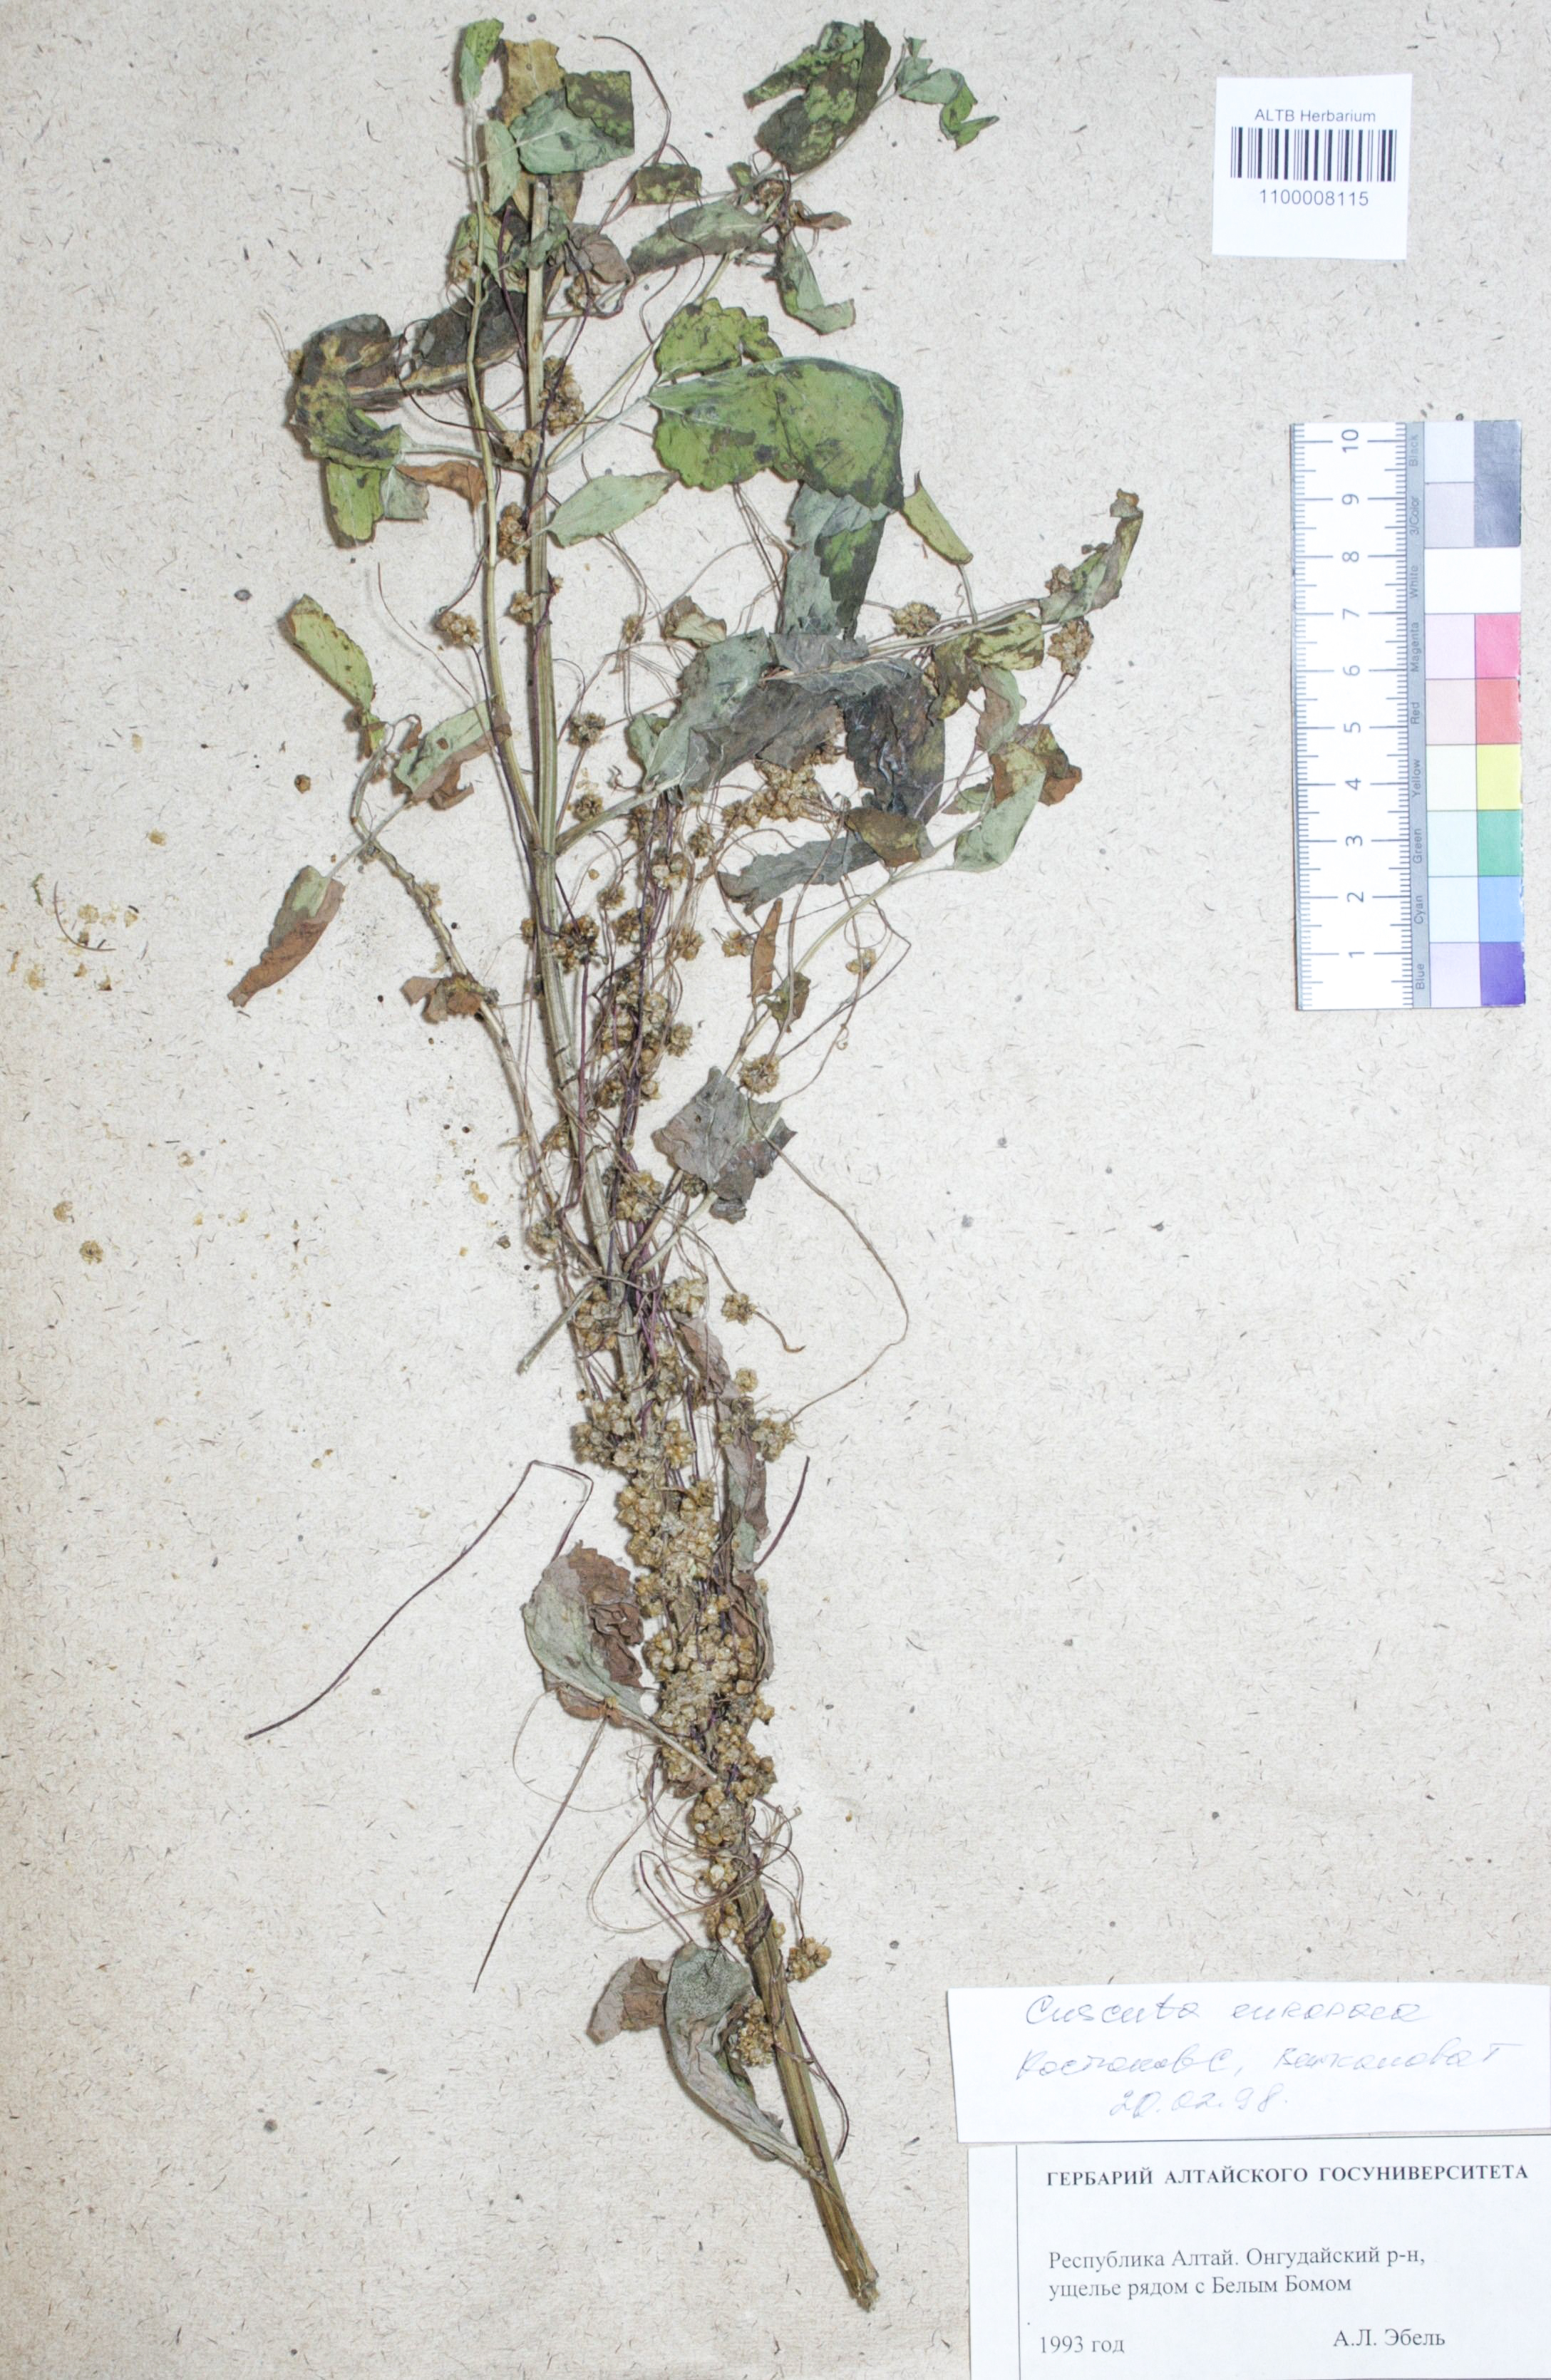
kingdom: Plantae
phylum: Tracheophyta
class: Magnoliopsida
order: Solanales
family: Convolvulaceae
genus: Cuscuta
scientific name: Cuscuta europaea
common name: Greater dodder
